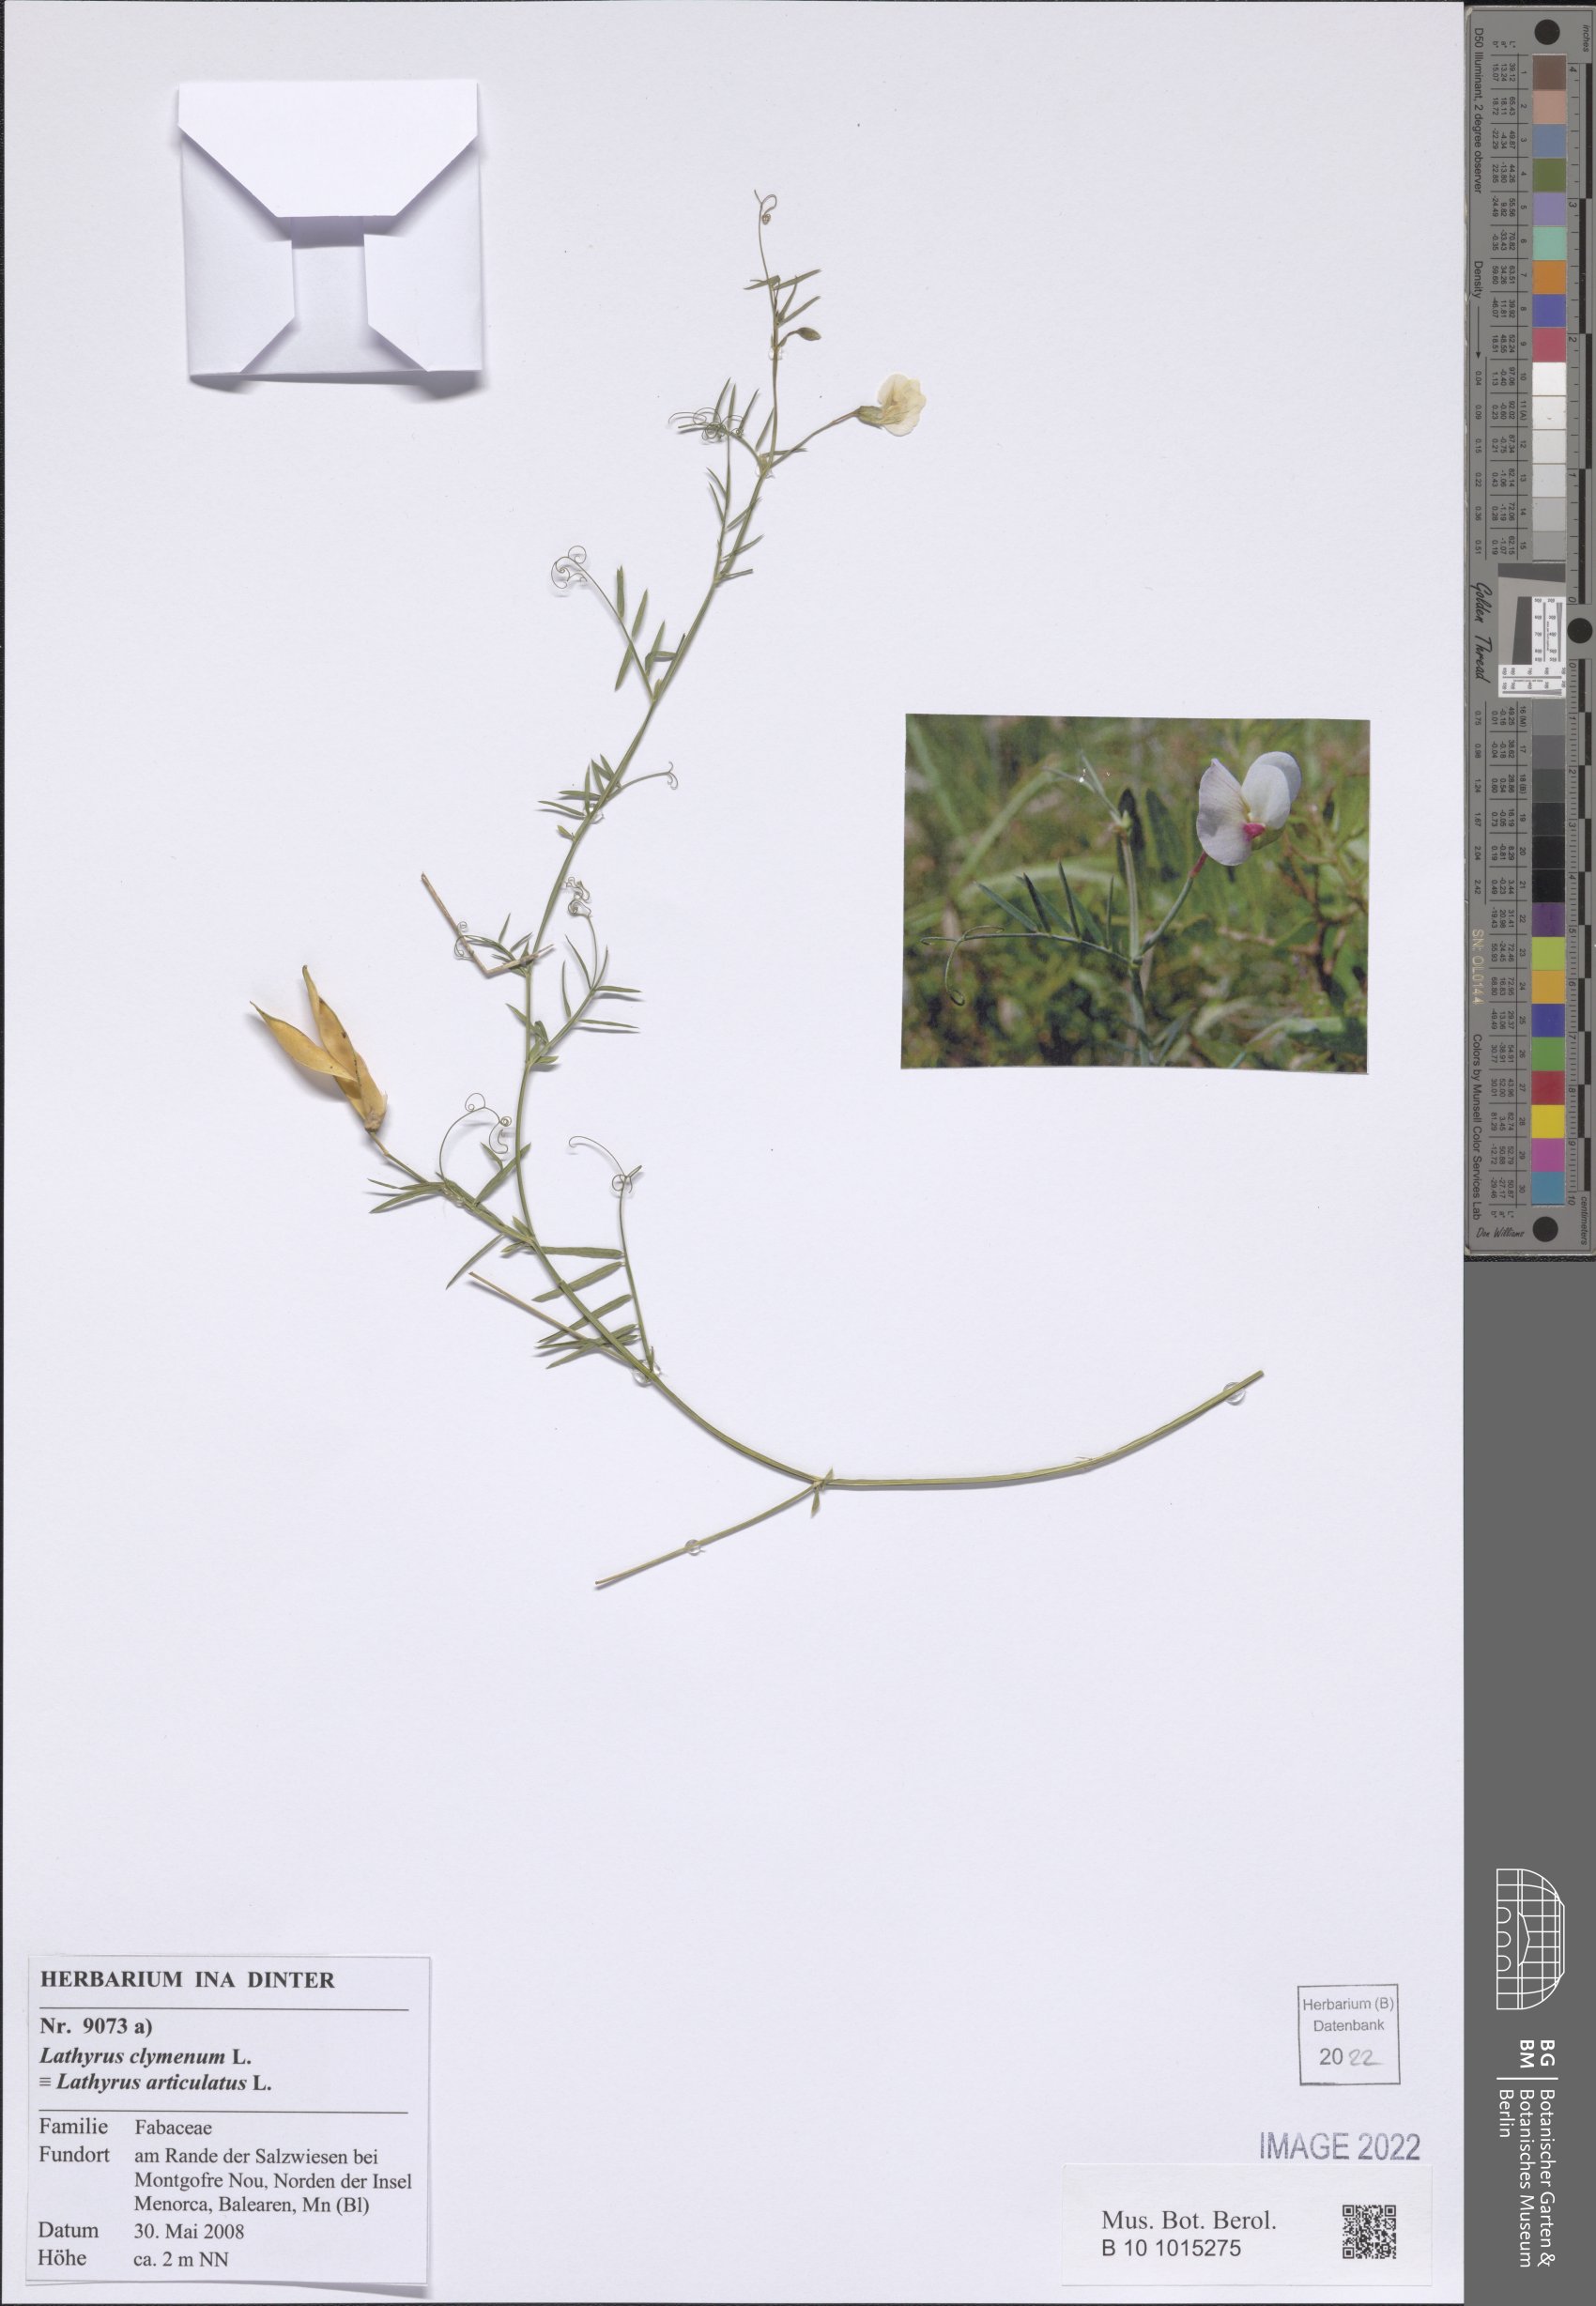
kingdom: Plantae
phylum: Tracheophyta
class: Magnoliopsida
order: Fabales
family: Fabaceae
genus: Lathyrus
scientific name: Lathyrus clymenum
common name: Spanish vetchling
